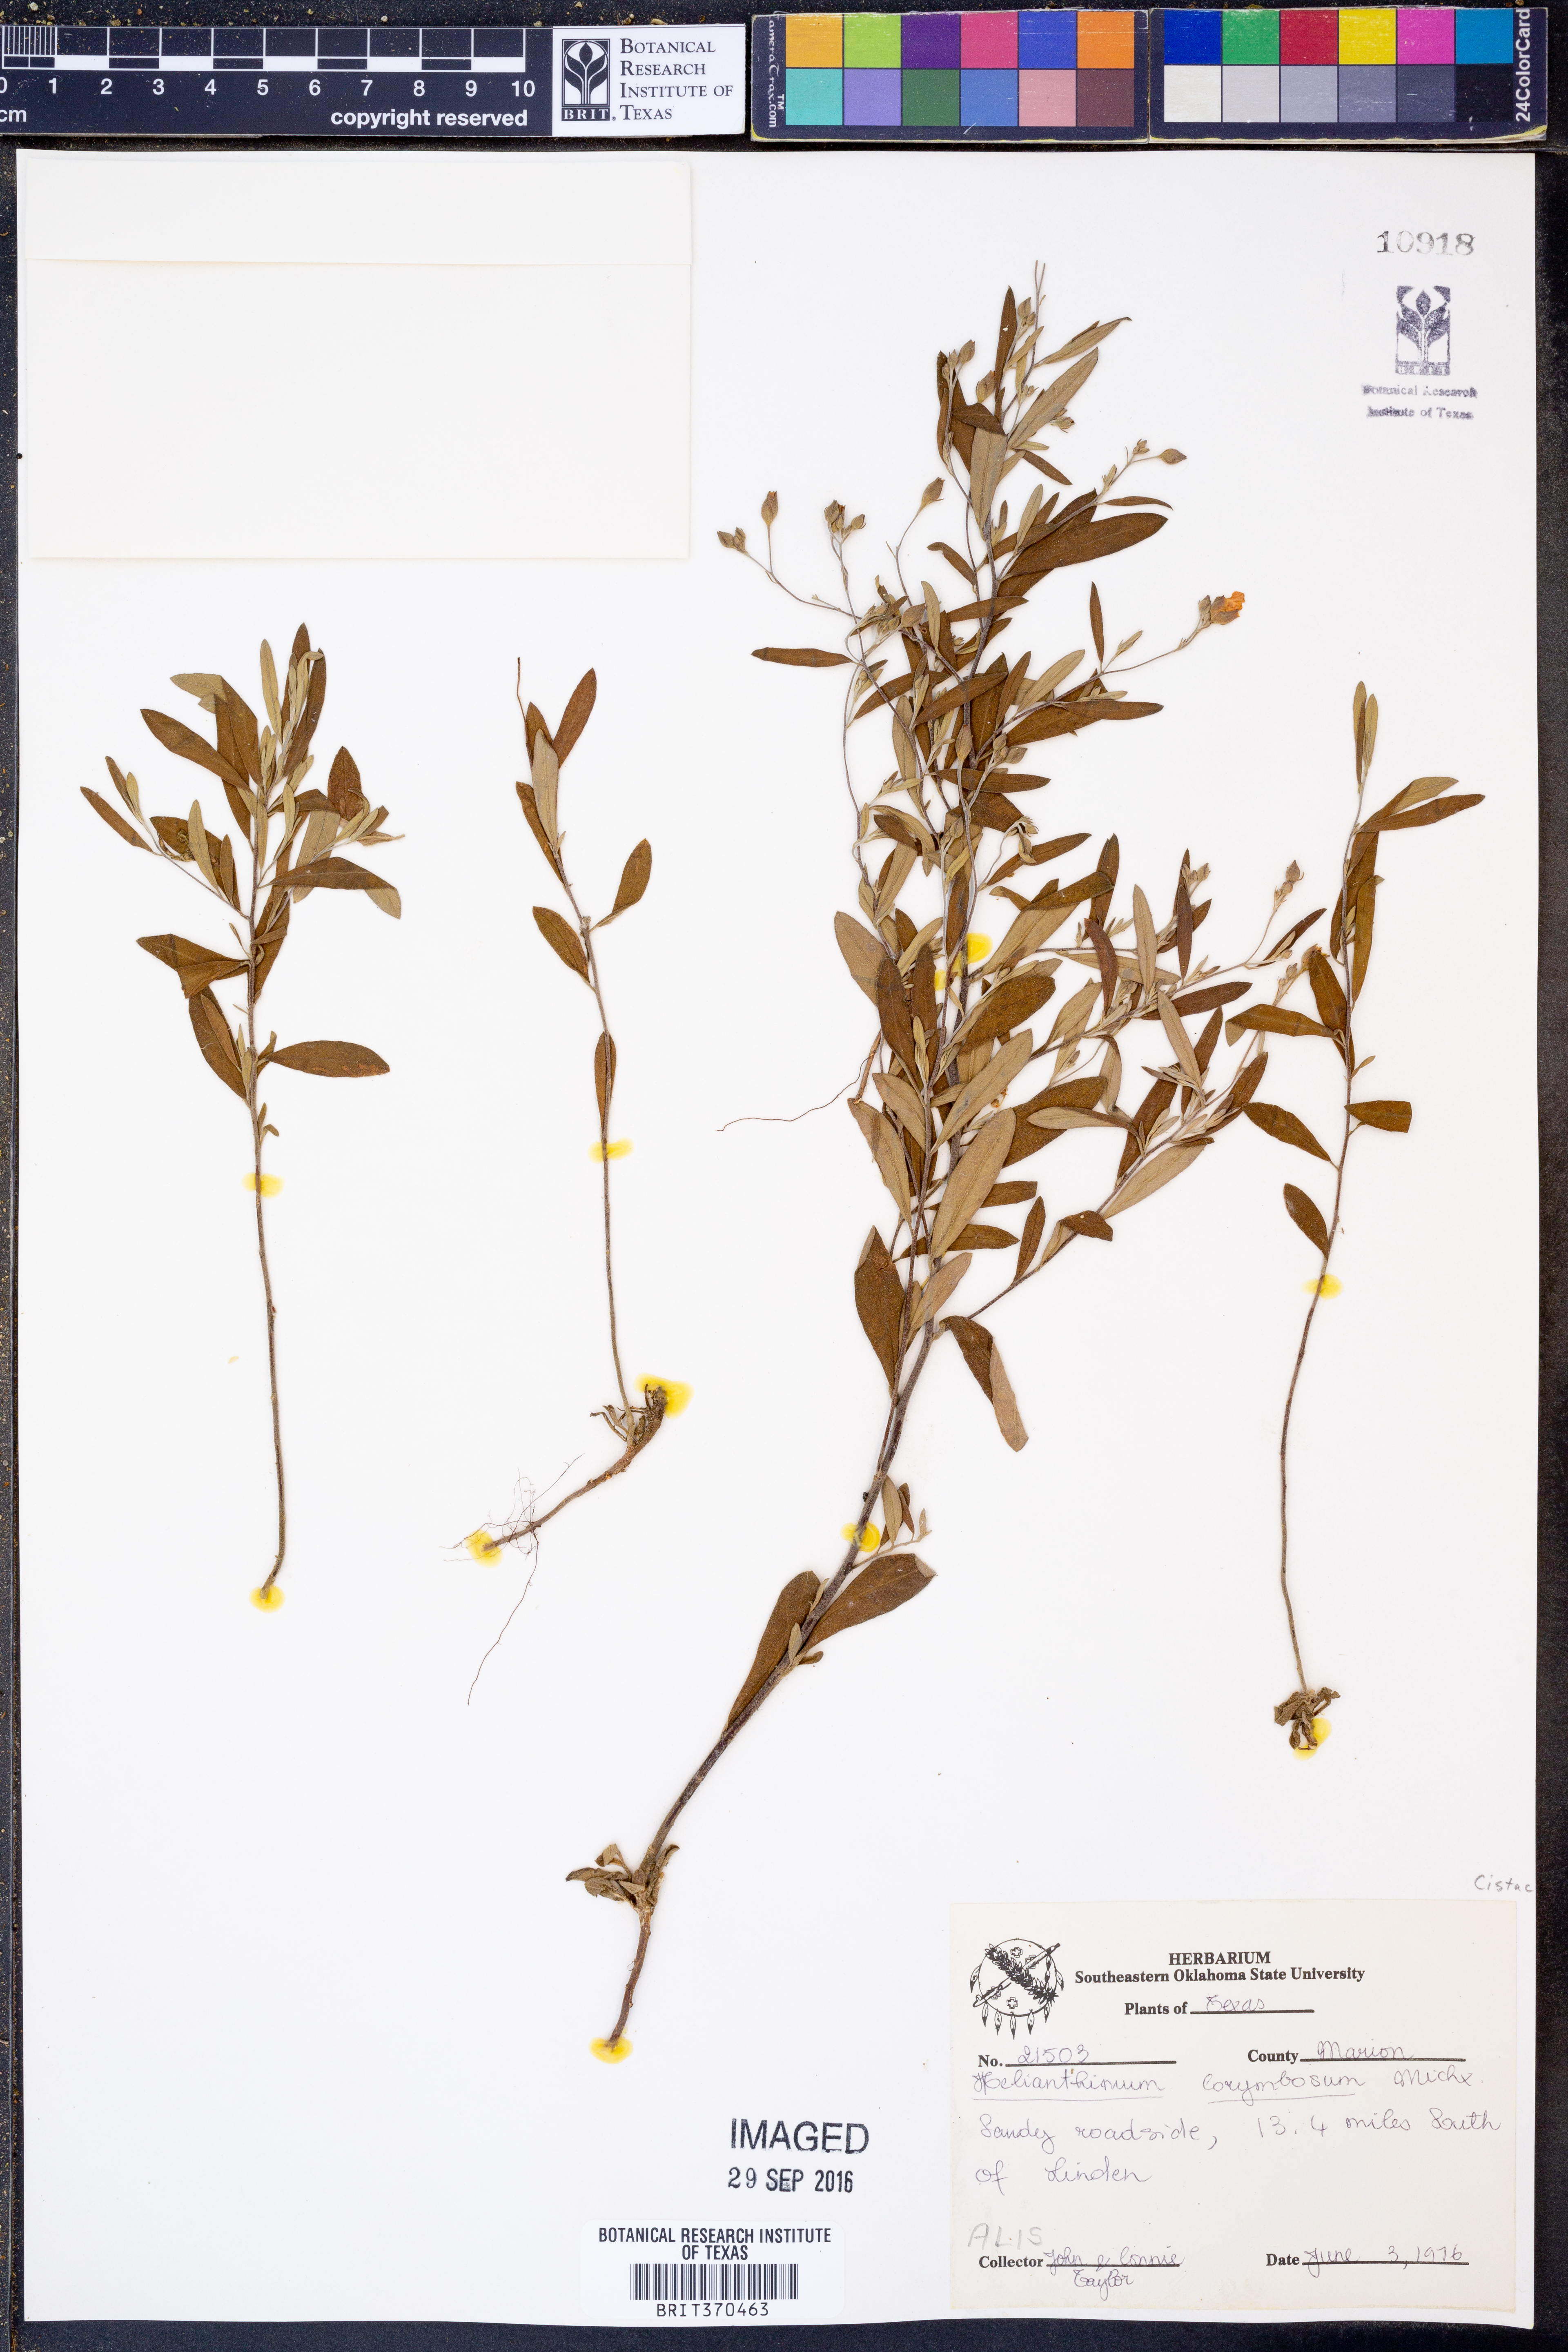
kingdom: Plantae
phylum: Tracheophyta
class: Magnoliopsida
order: Malvales
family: Cistaceae
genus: Crocanthemum
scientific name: Crocanthemum corymbosum
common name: Pinebarren sun-rose
